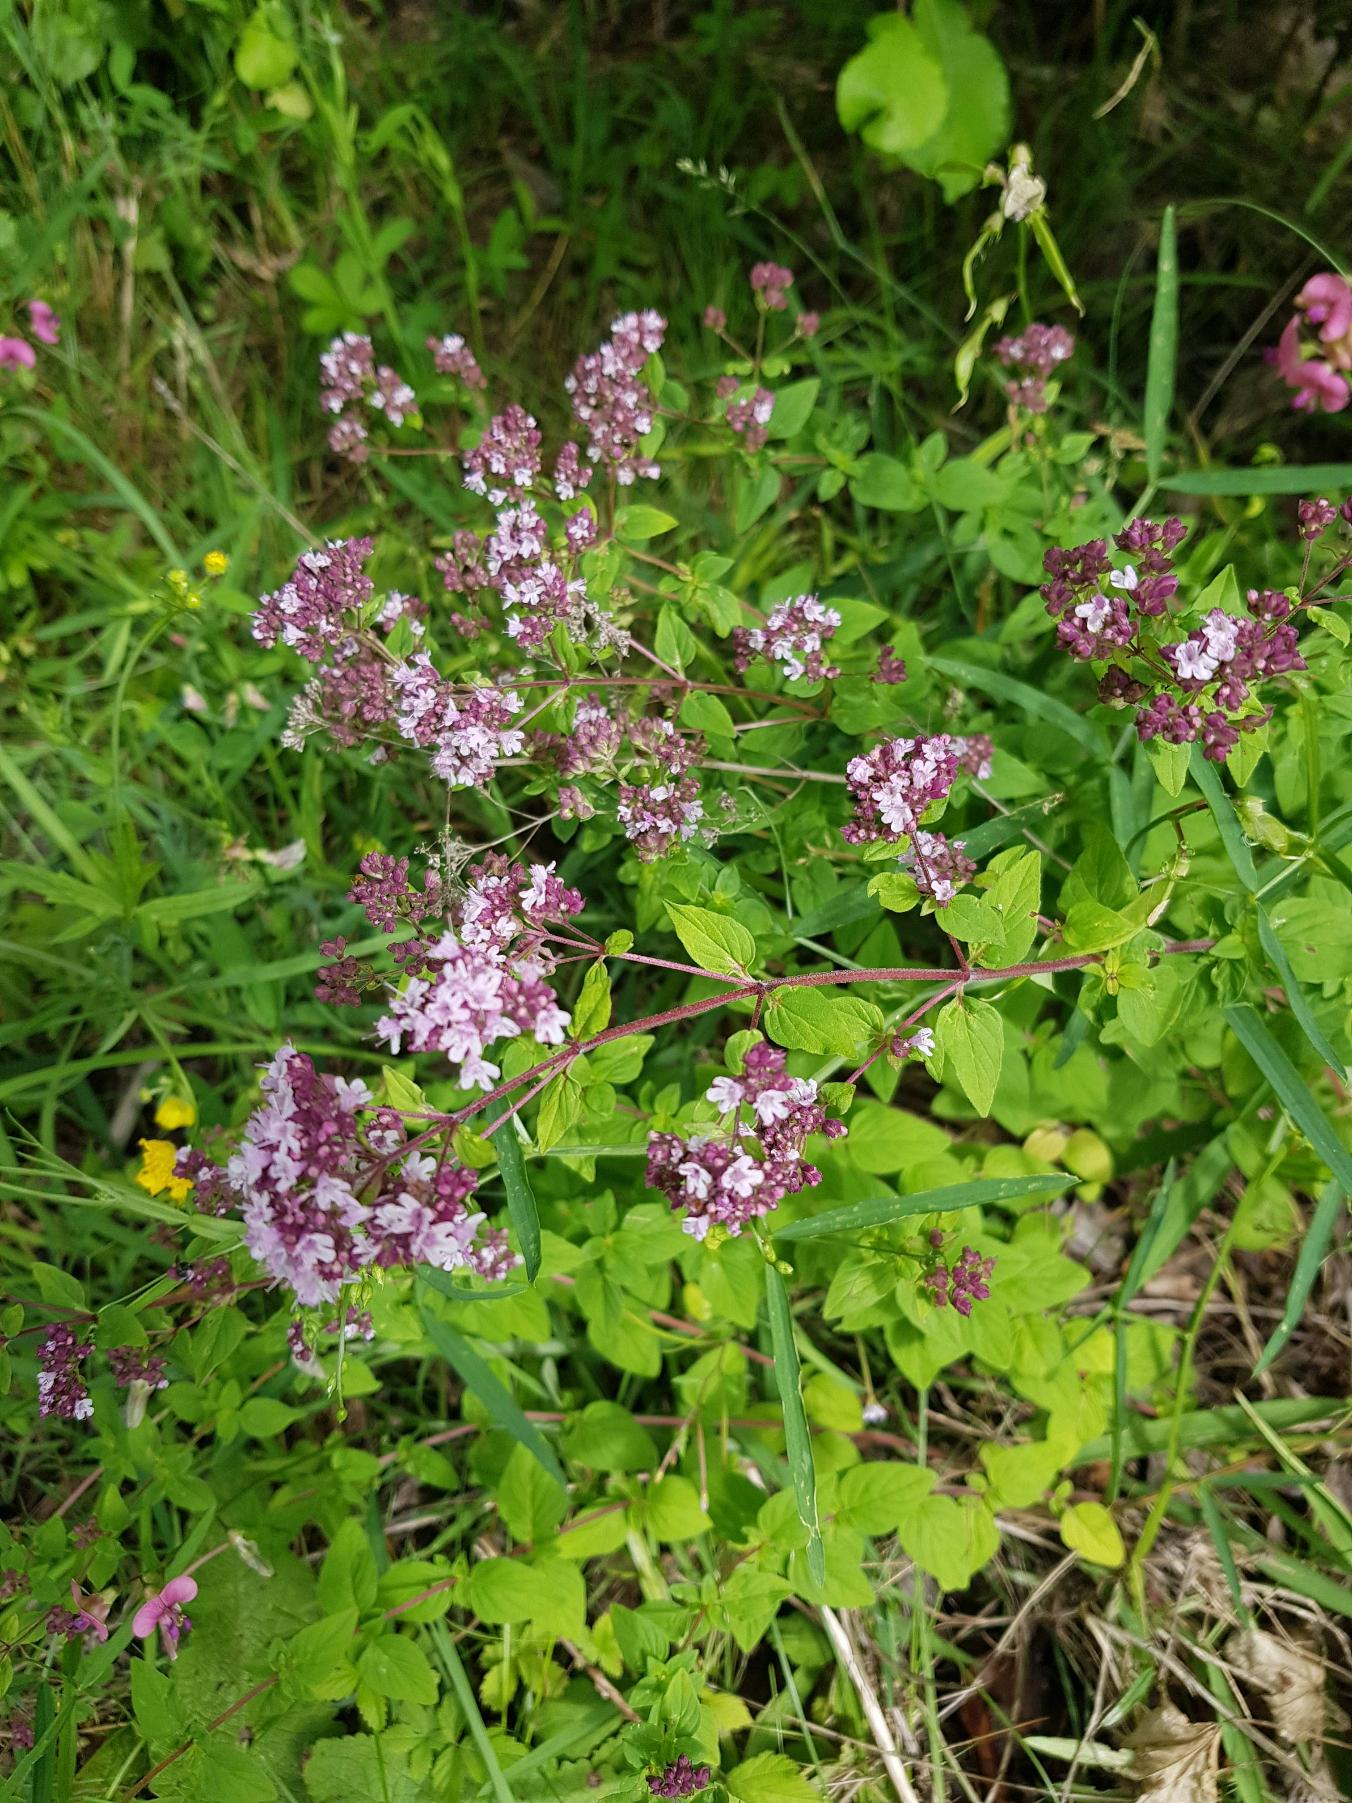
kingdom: Plantae
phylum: Tracheophyta
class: Magnoliopsida
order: Lamiales
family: Lamiaceae
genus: Origanum
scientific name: Origanum vulgare
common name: Merian
